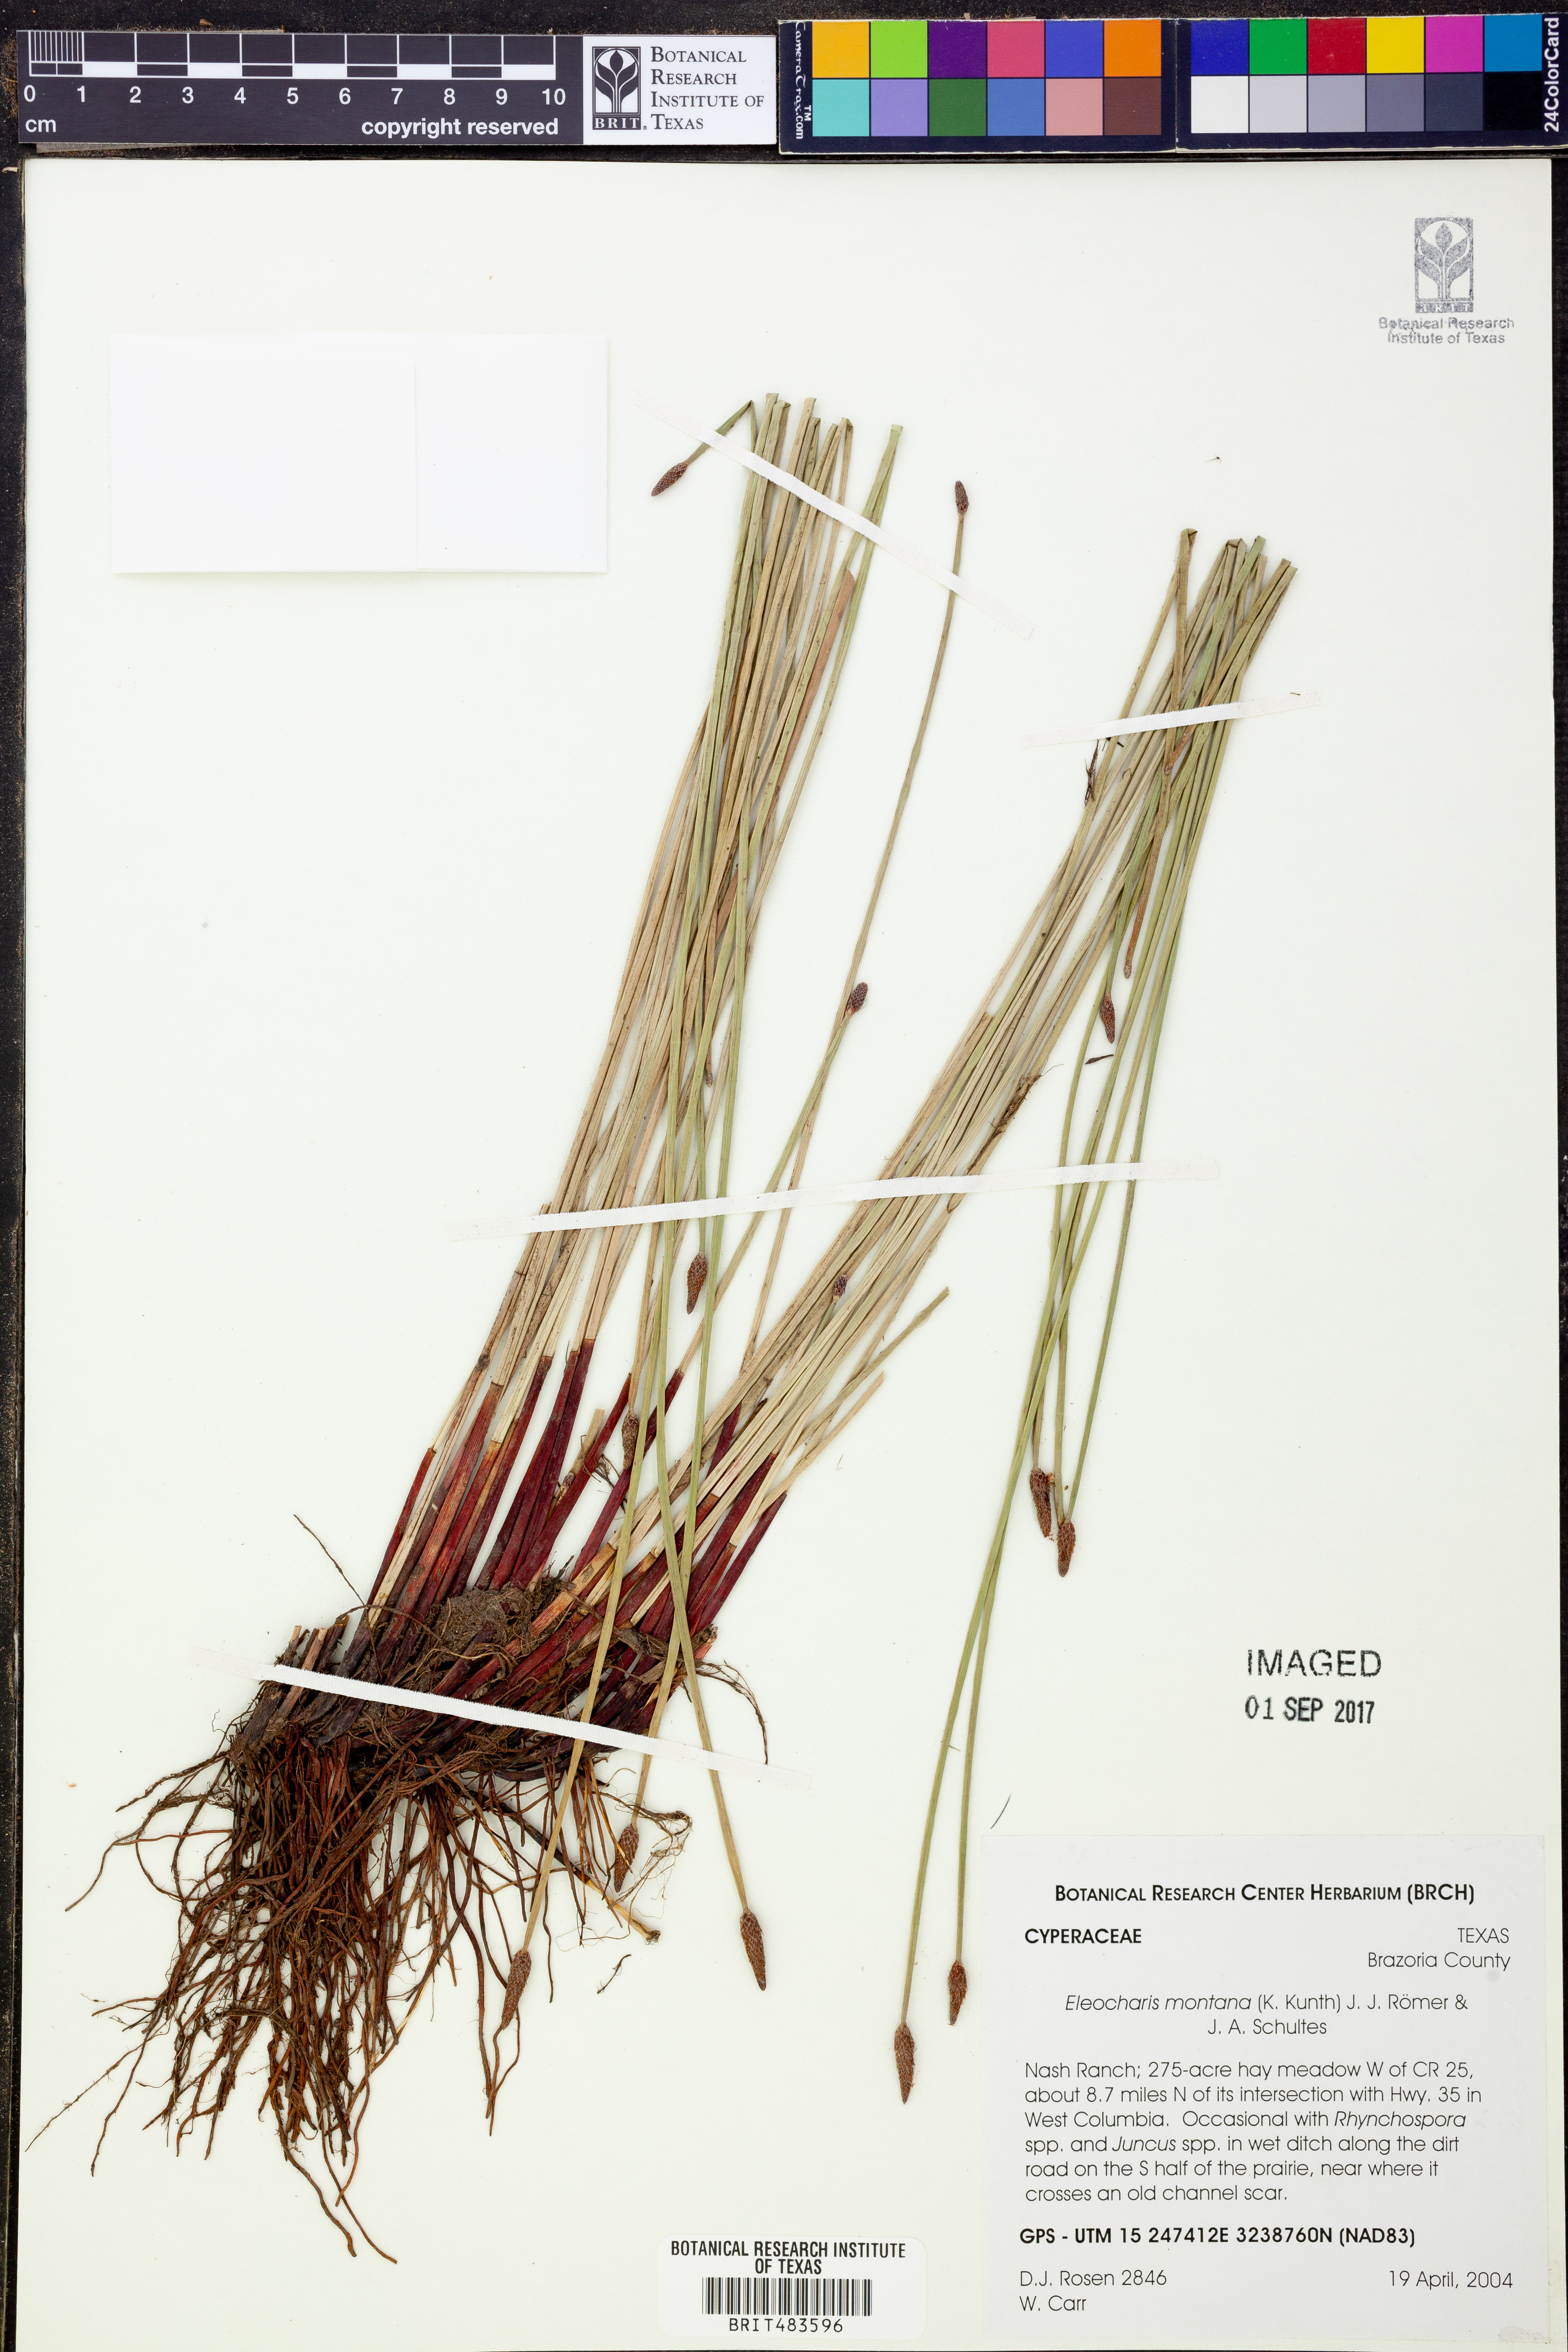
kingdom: Plantae
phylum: Tracheophyta
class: Liliopsida
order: Poales
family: Cyperaceae
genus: Eleocharis
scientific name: Eleocharis montana
